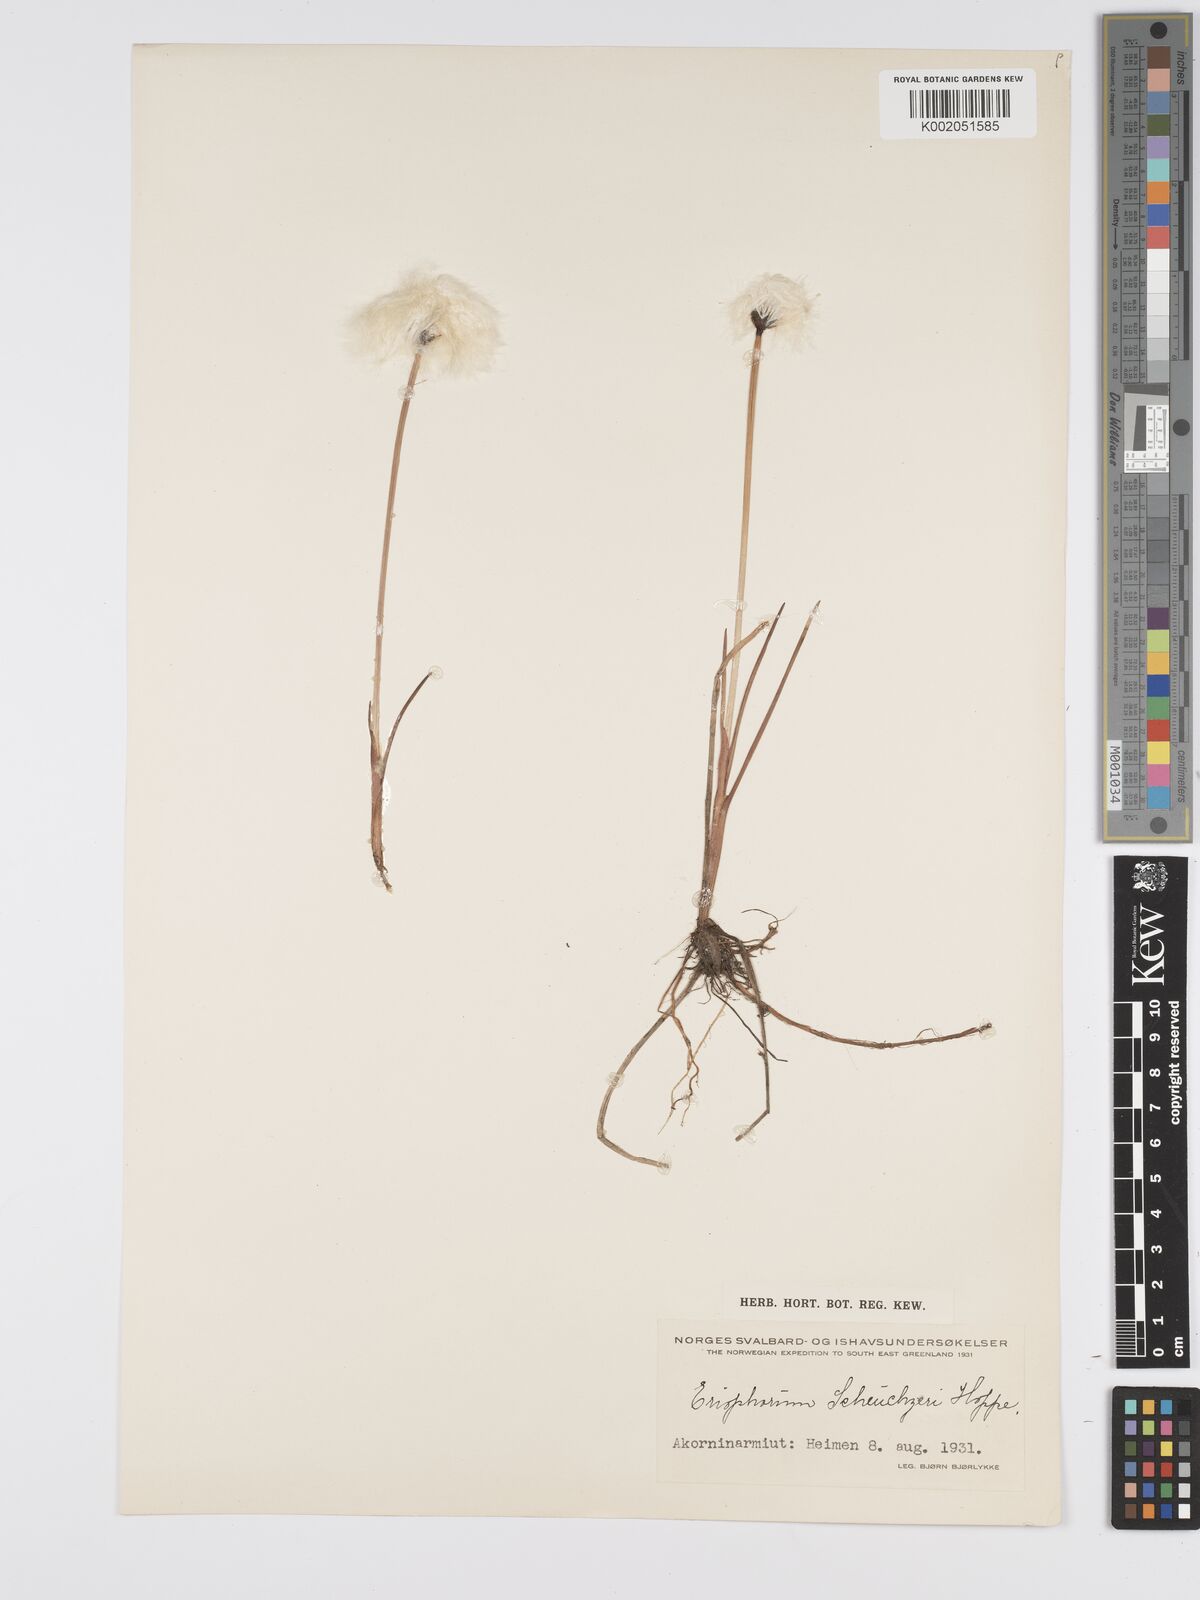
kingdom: Plantae
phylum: Tracheophyta
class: Liliopsida
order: Poales
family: Cyperaceae
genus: Eriophorum
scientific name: Eriophorum scheuchzeri
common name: Scheuchzer's cottongrass
